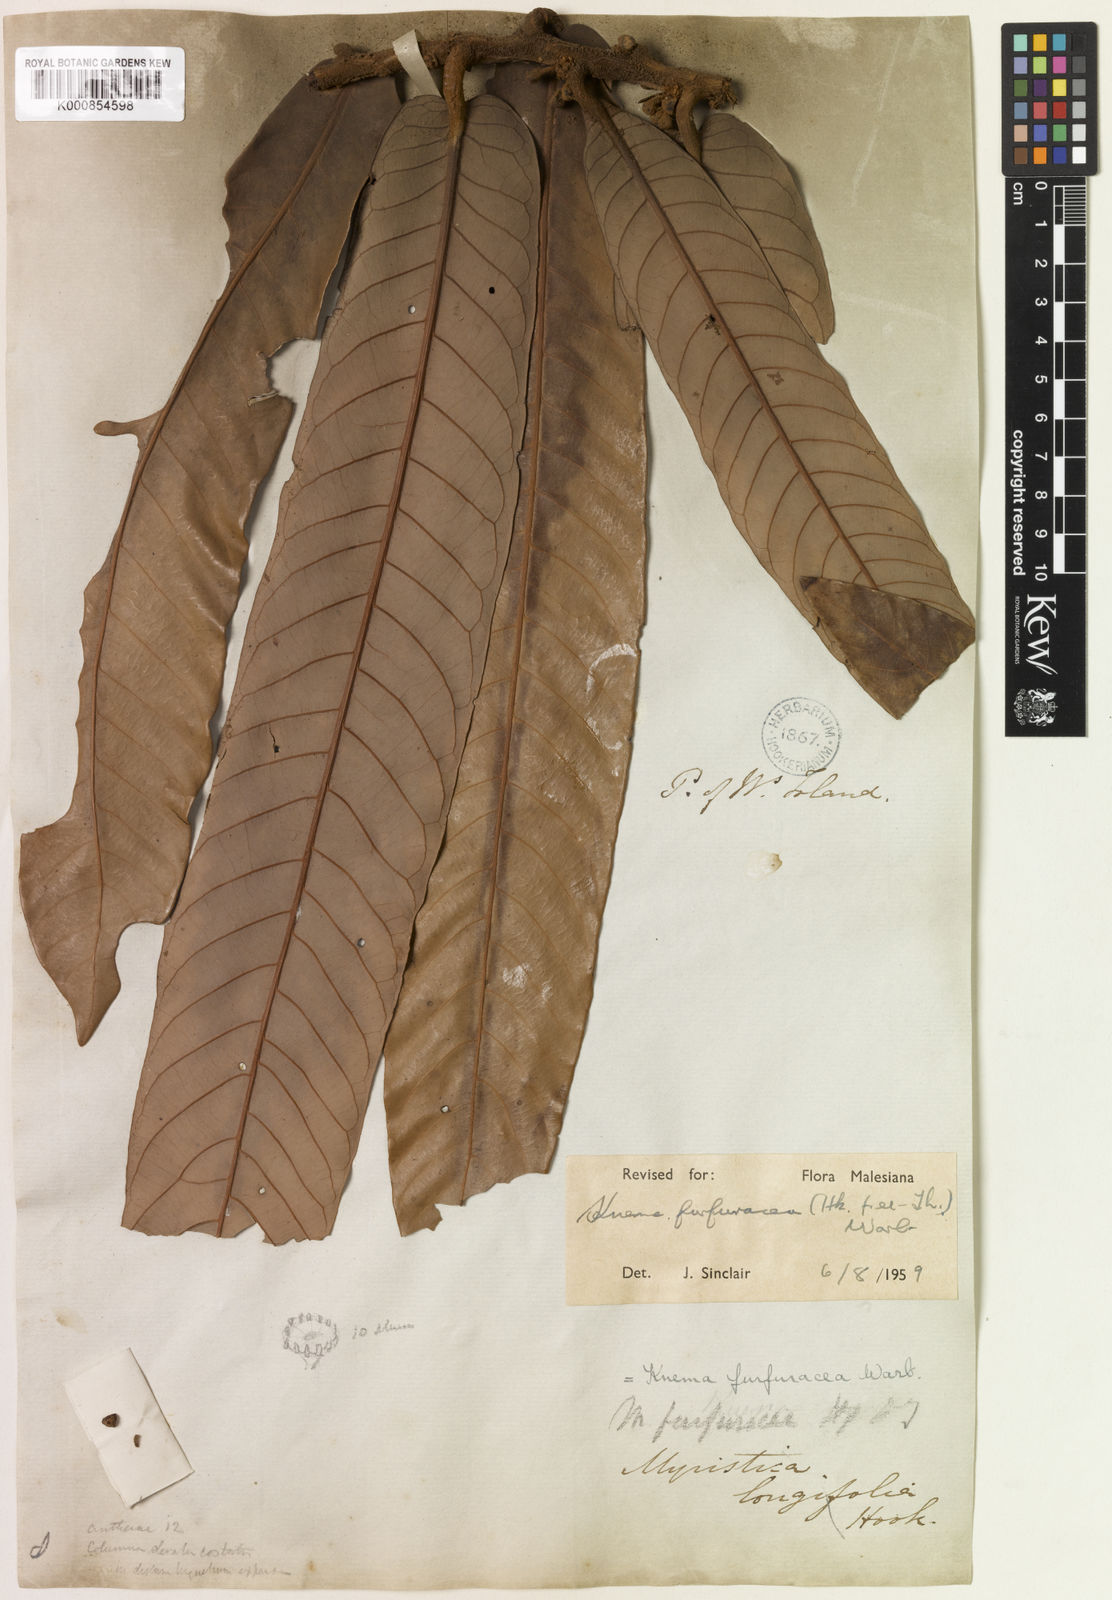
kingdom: Plantae
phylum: Tracheophyta
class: Magnoliopsida
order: Magnoliales
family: Myristicaceae
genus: Knema
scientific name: Knema furfuracea
